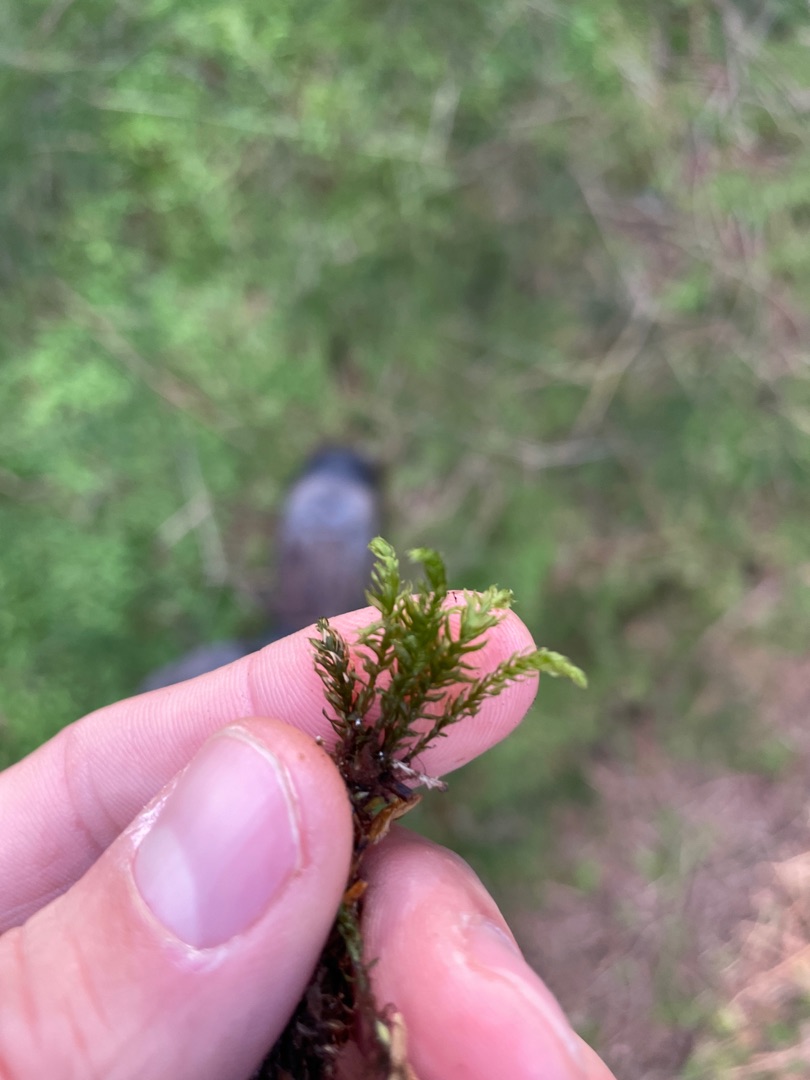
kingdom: Plantae
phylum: Bryophyta
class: Bryopsida
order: Bryales
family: Mniaceae
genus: Mnium
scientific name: Mnium hornum
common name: Brunfiltet stjernemos
